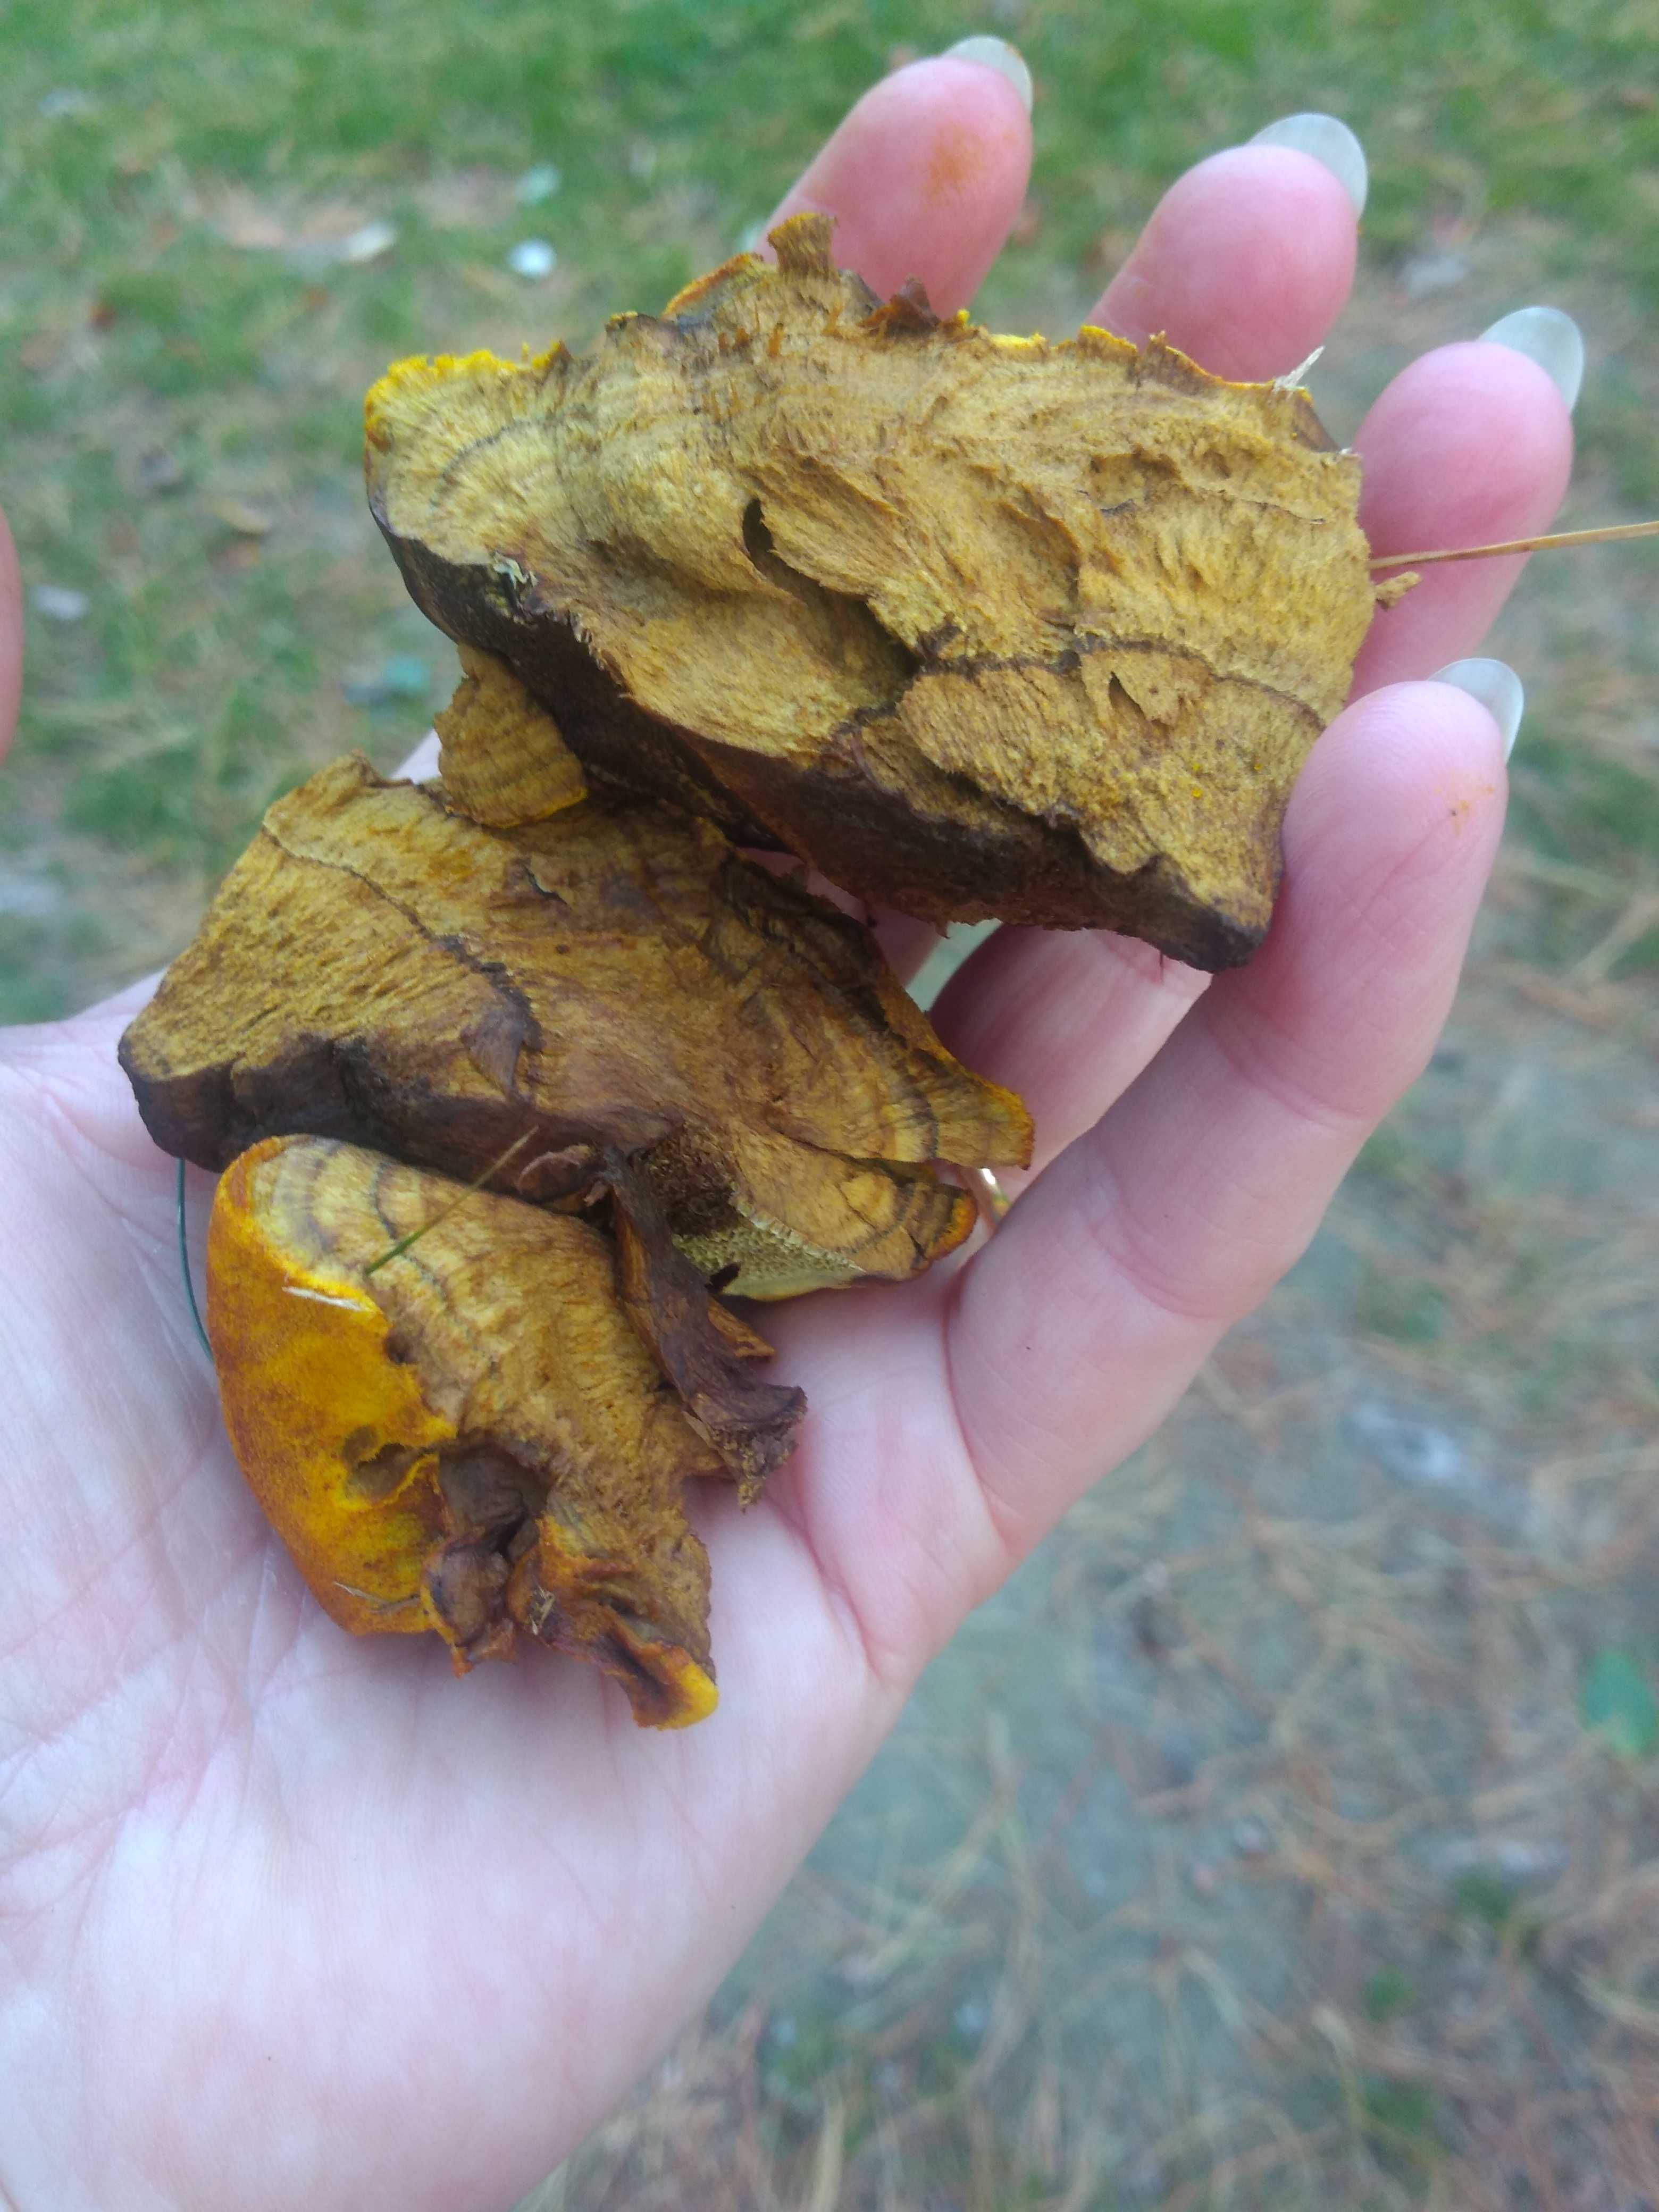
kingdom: Fungi
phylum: Basidiomycota
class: Agaricomycetes
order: Polyporales
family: Laetiporaceae
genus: Phaeolus
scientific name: Phaeolus schweinitzii
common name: brunporesvamp
